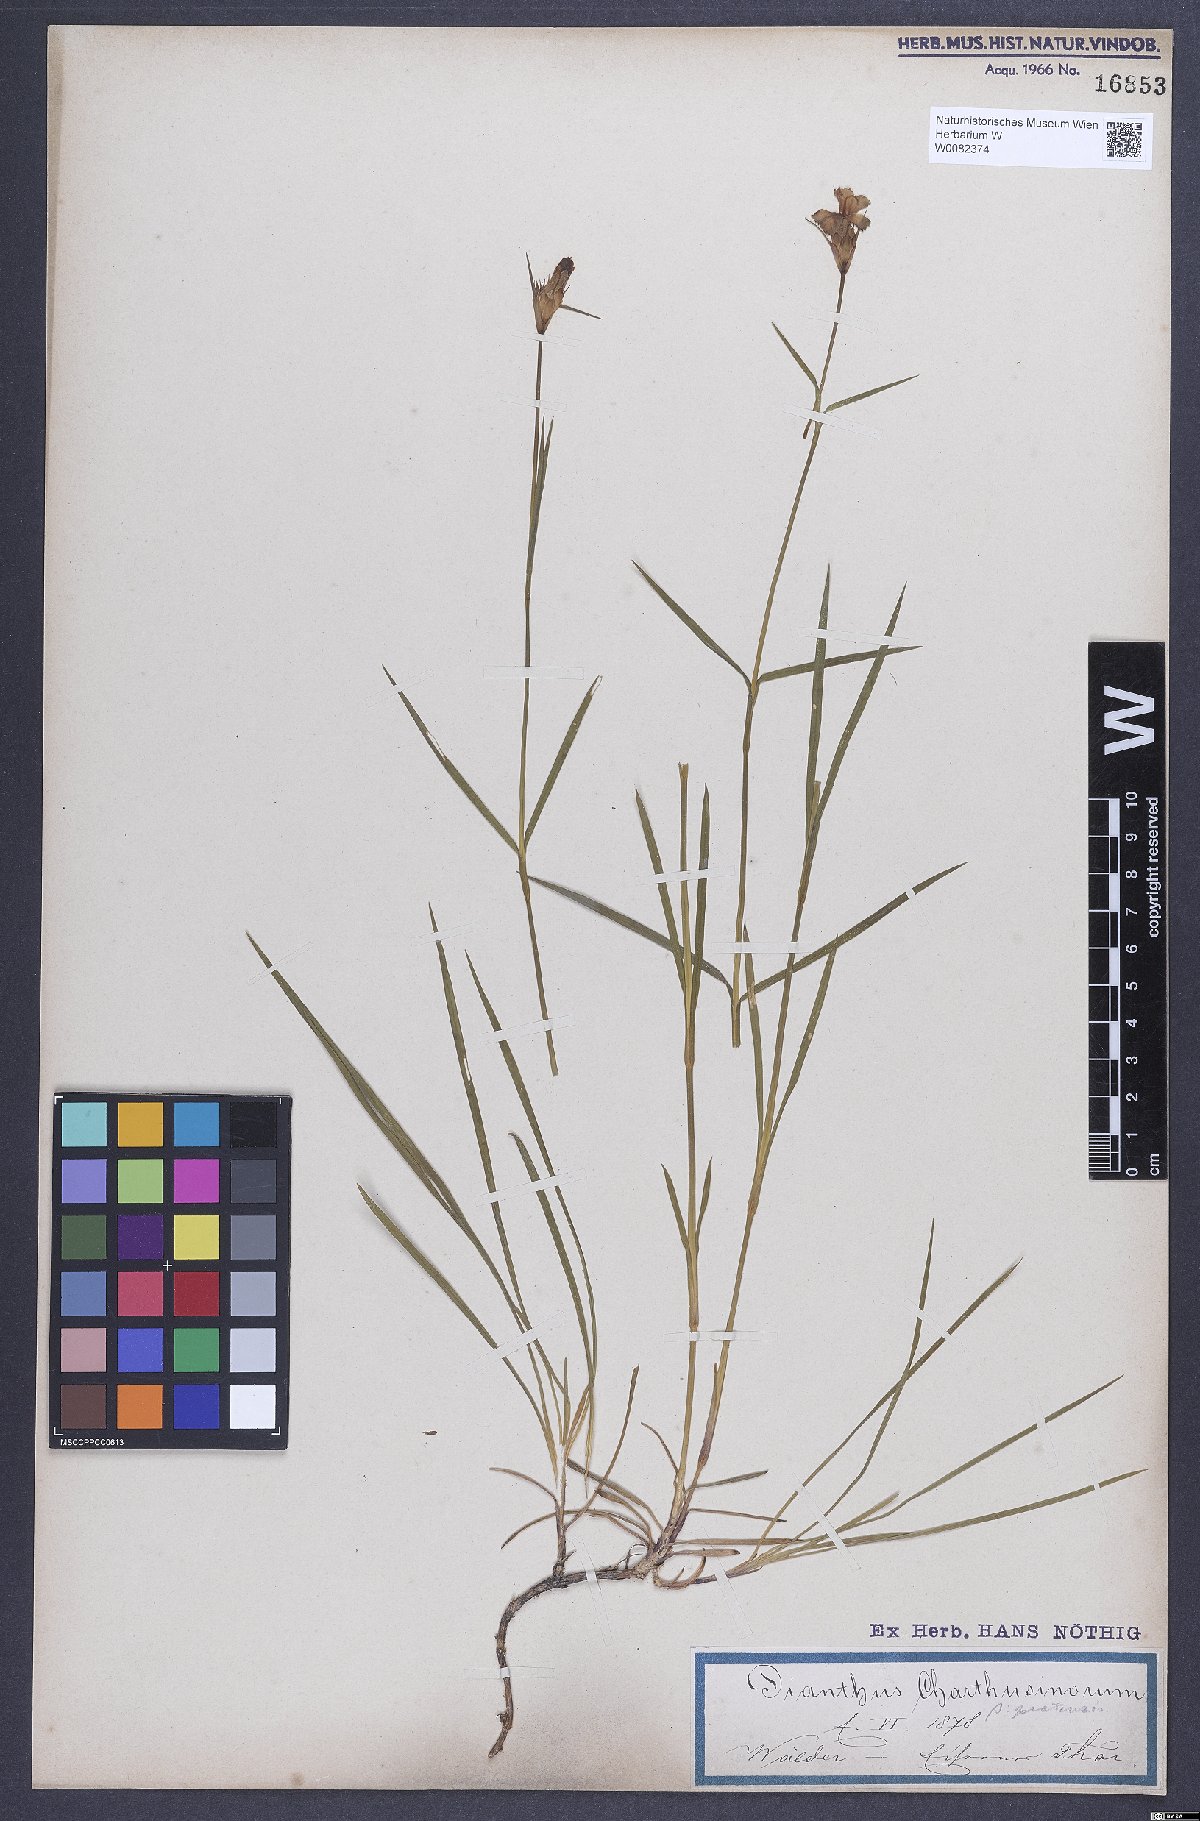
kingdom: Plantae
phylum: Tracheophyta
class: Magnoliopsida
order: Caryophyllales
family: Caryophyllaceae
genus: Dianthus
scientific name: Dianthus carthusianorum
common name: Carthusian pink
